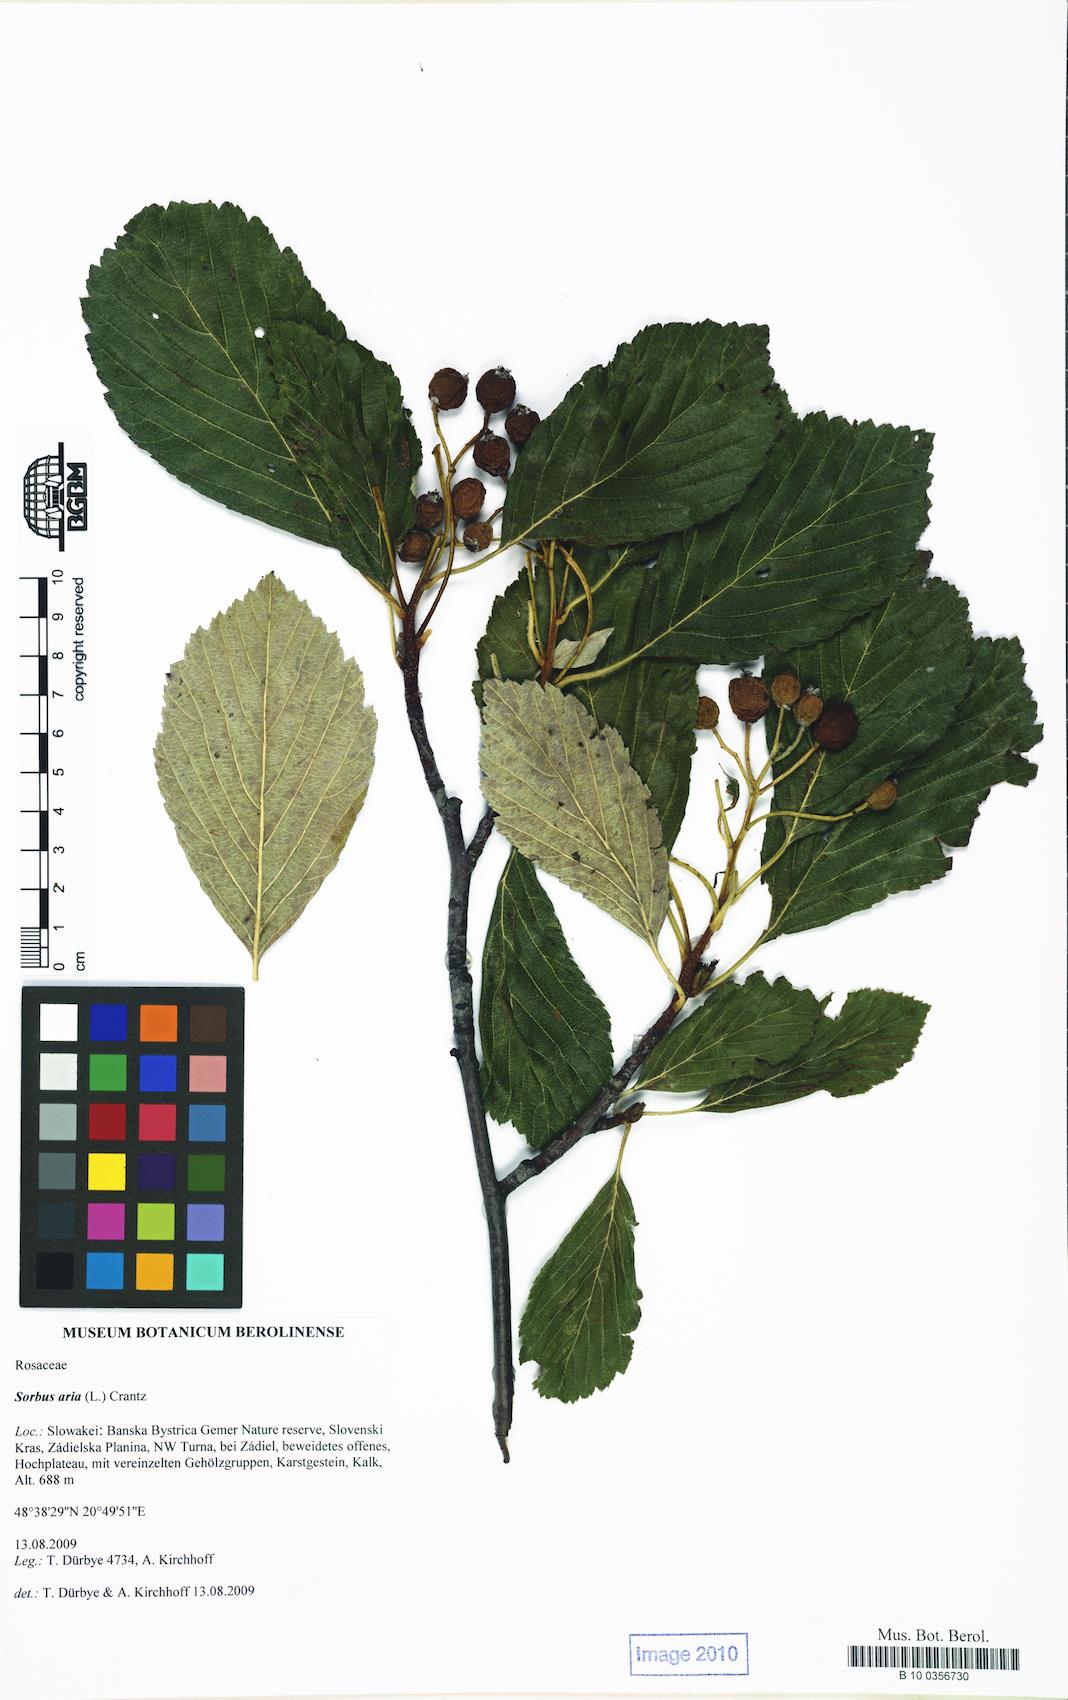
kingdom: Plantae
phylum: Tracheophyta
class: Magnoliopsida
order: Rosales
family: Rosaceae
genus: Aria
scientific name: Aria edulis
